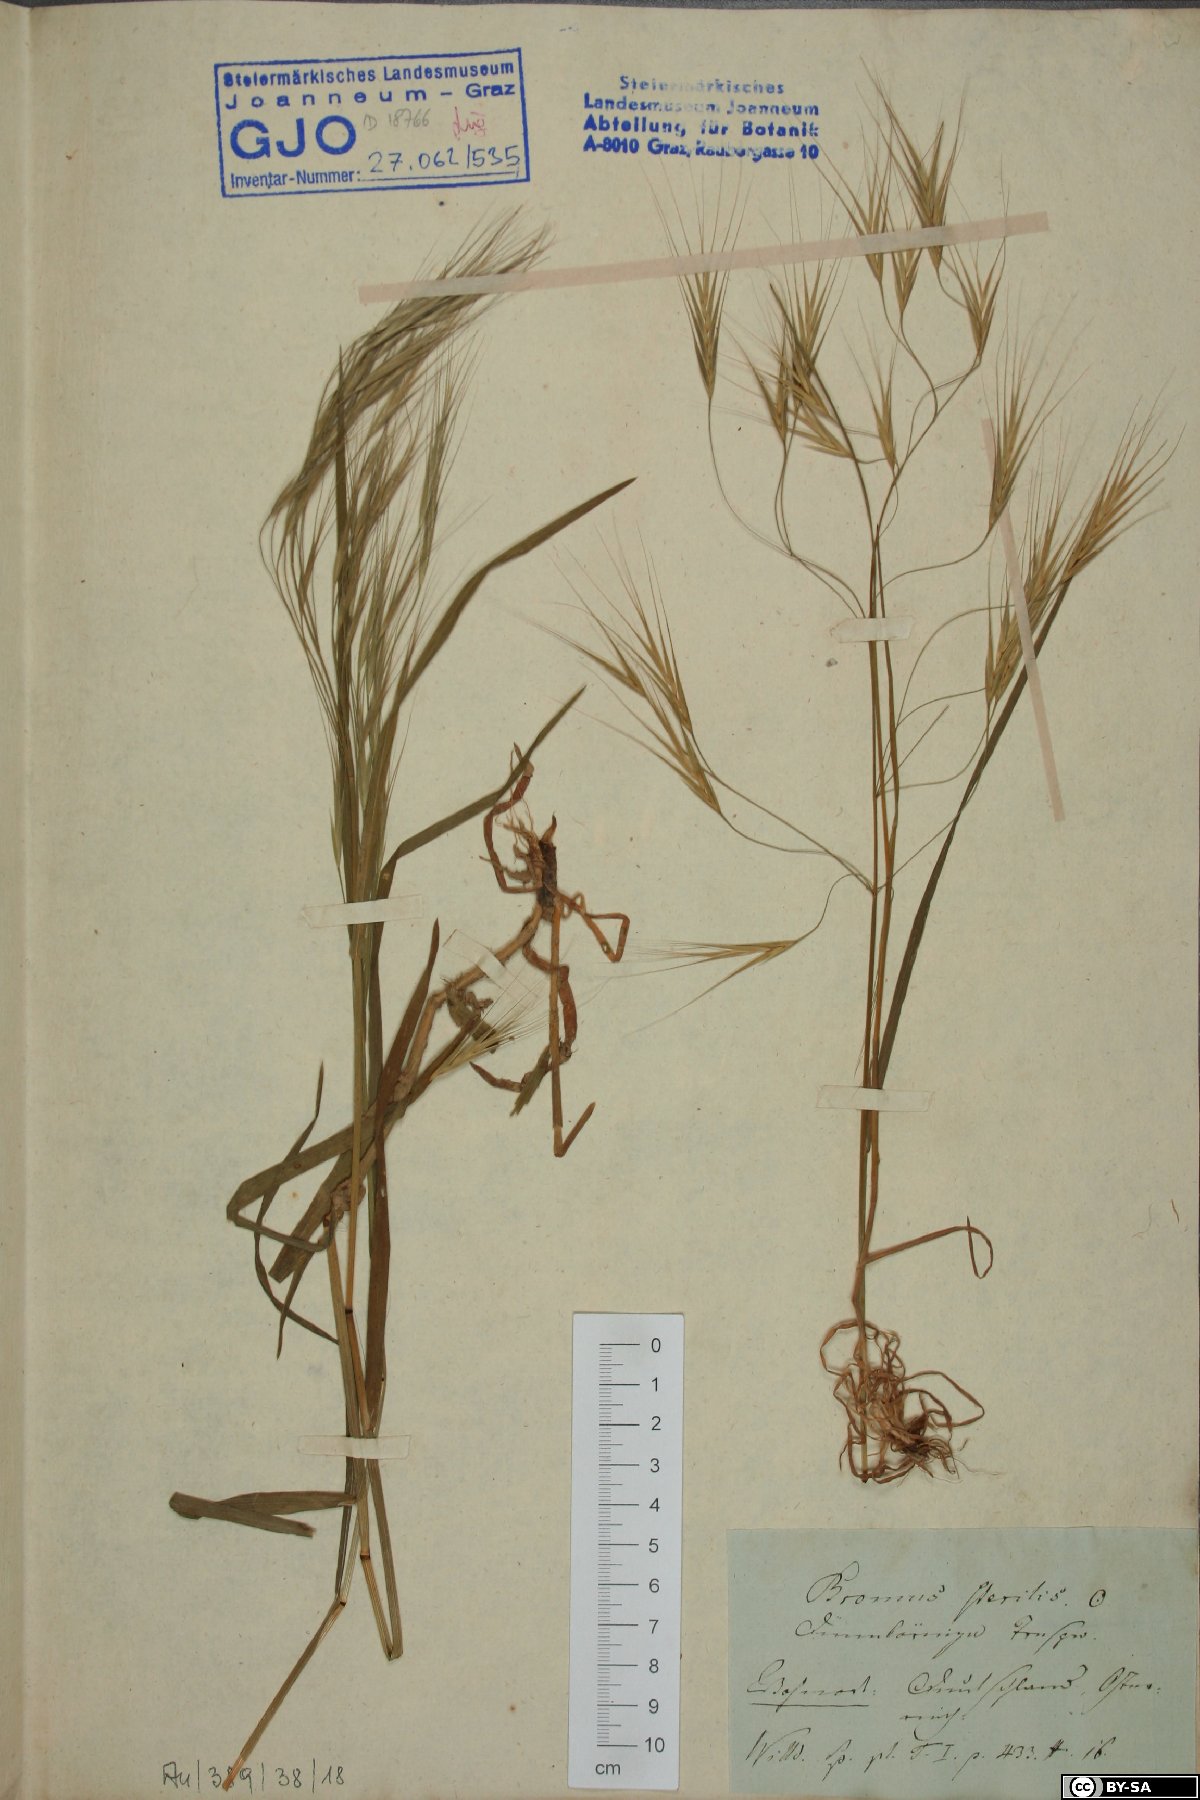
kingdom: Plantae
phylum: Tracheophyta
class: Liliopsida
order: Poales
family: Poaceae
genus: Bromus
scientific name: Bromus sterilis
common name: Poverty brome
